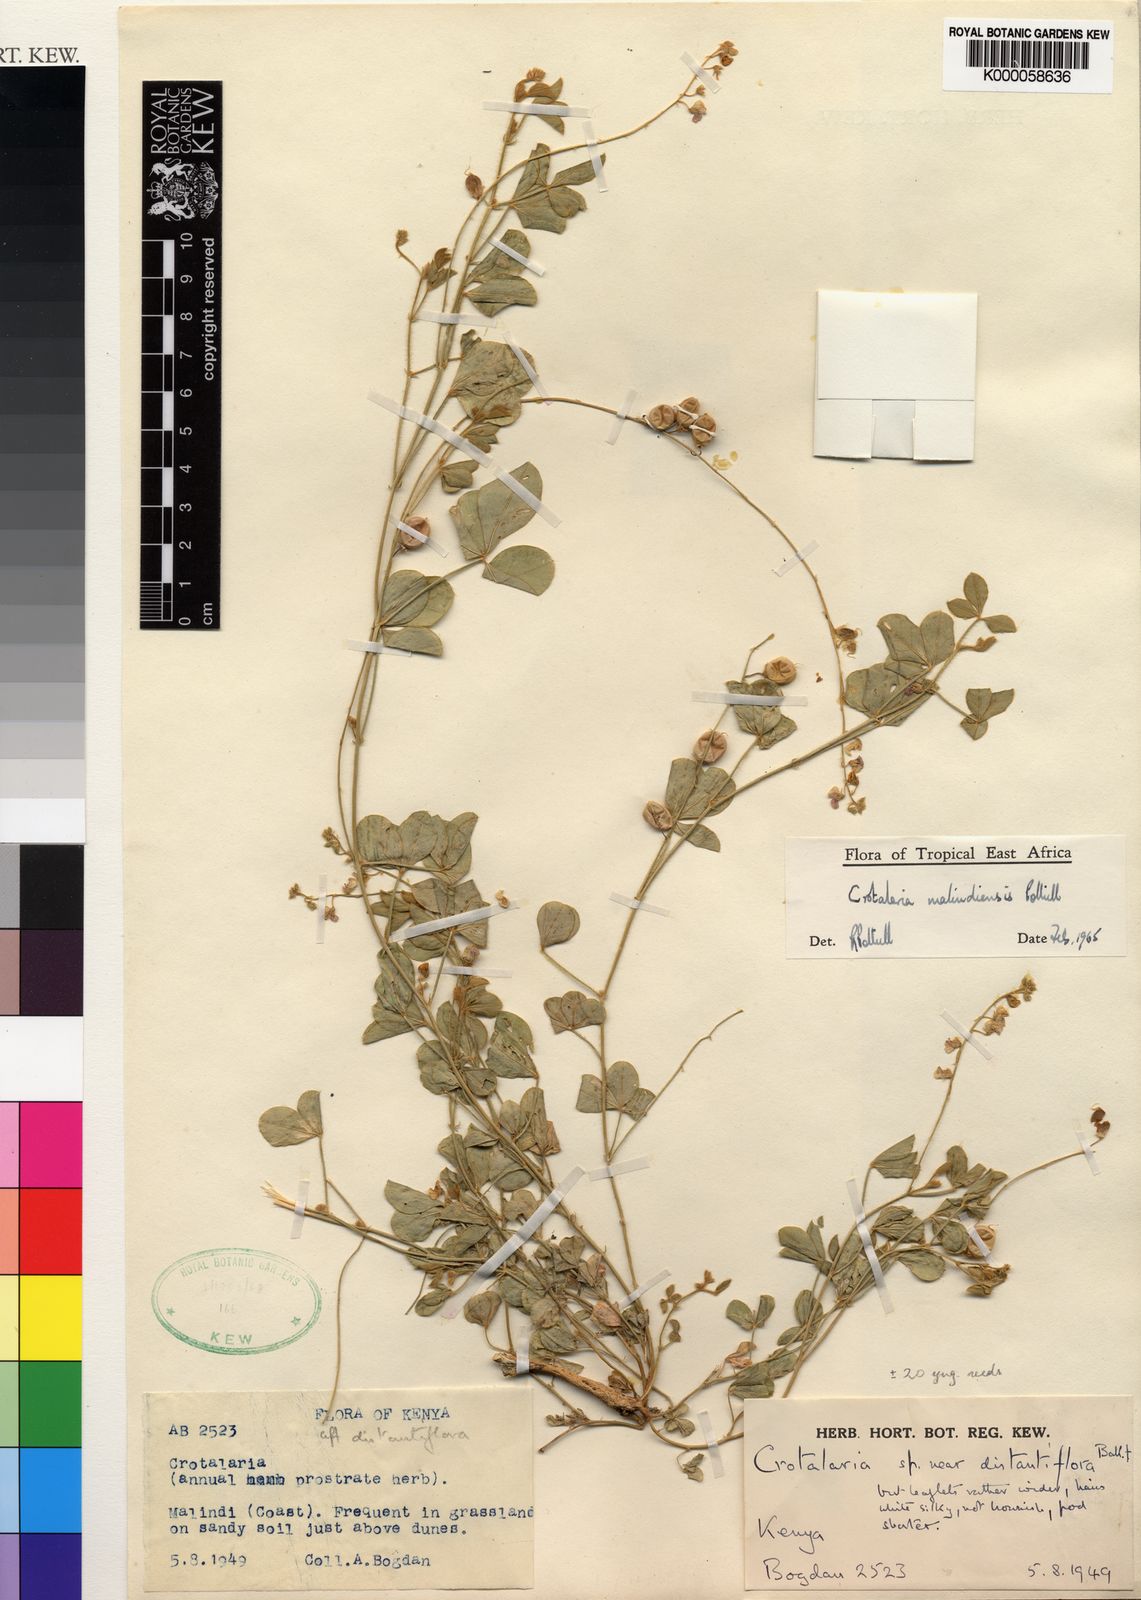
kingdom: Plantae
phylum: Tracheophyta
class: Magnoliopsida
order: Fabales
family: Fabaceae
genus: Crotalaria
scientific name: Crotalaria malindiensis
